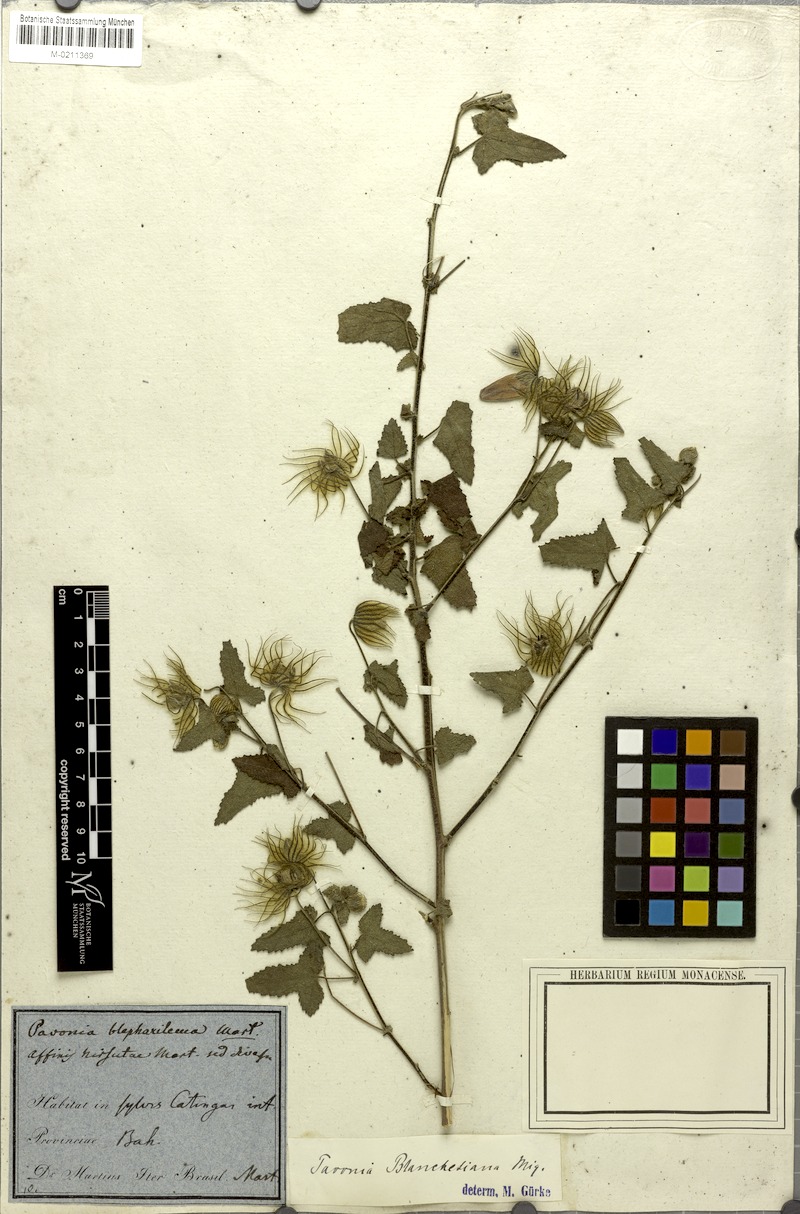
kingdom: Plantae
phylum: Tracheophyta
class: Magnoliopsida
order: Malvales
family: Malvaceae
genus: Pavonia
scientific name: Pavonia blanchetiana
